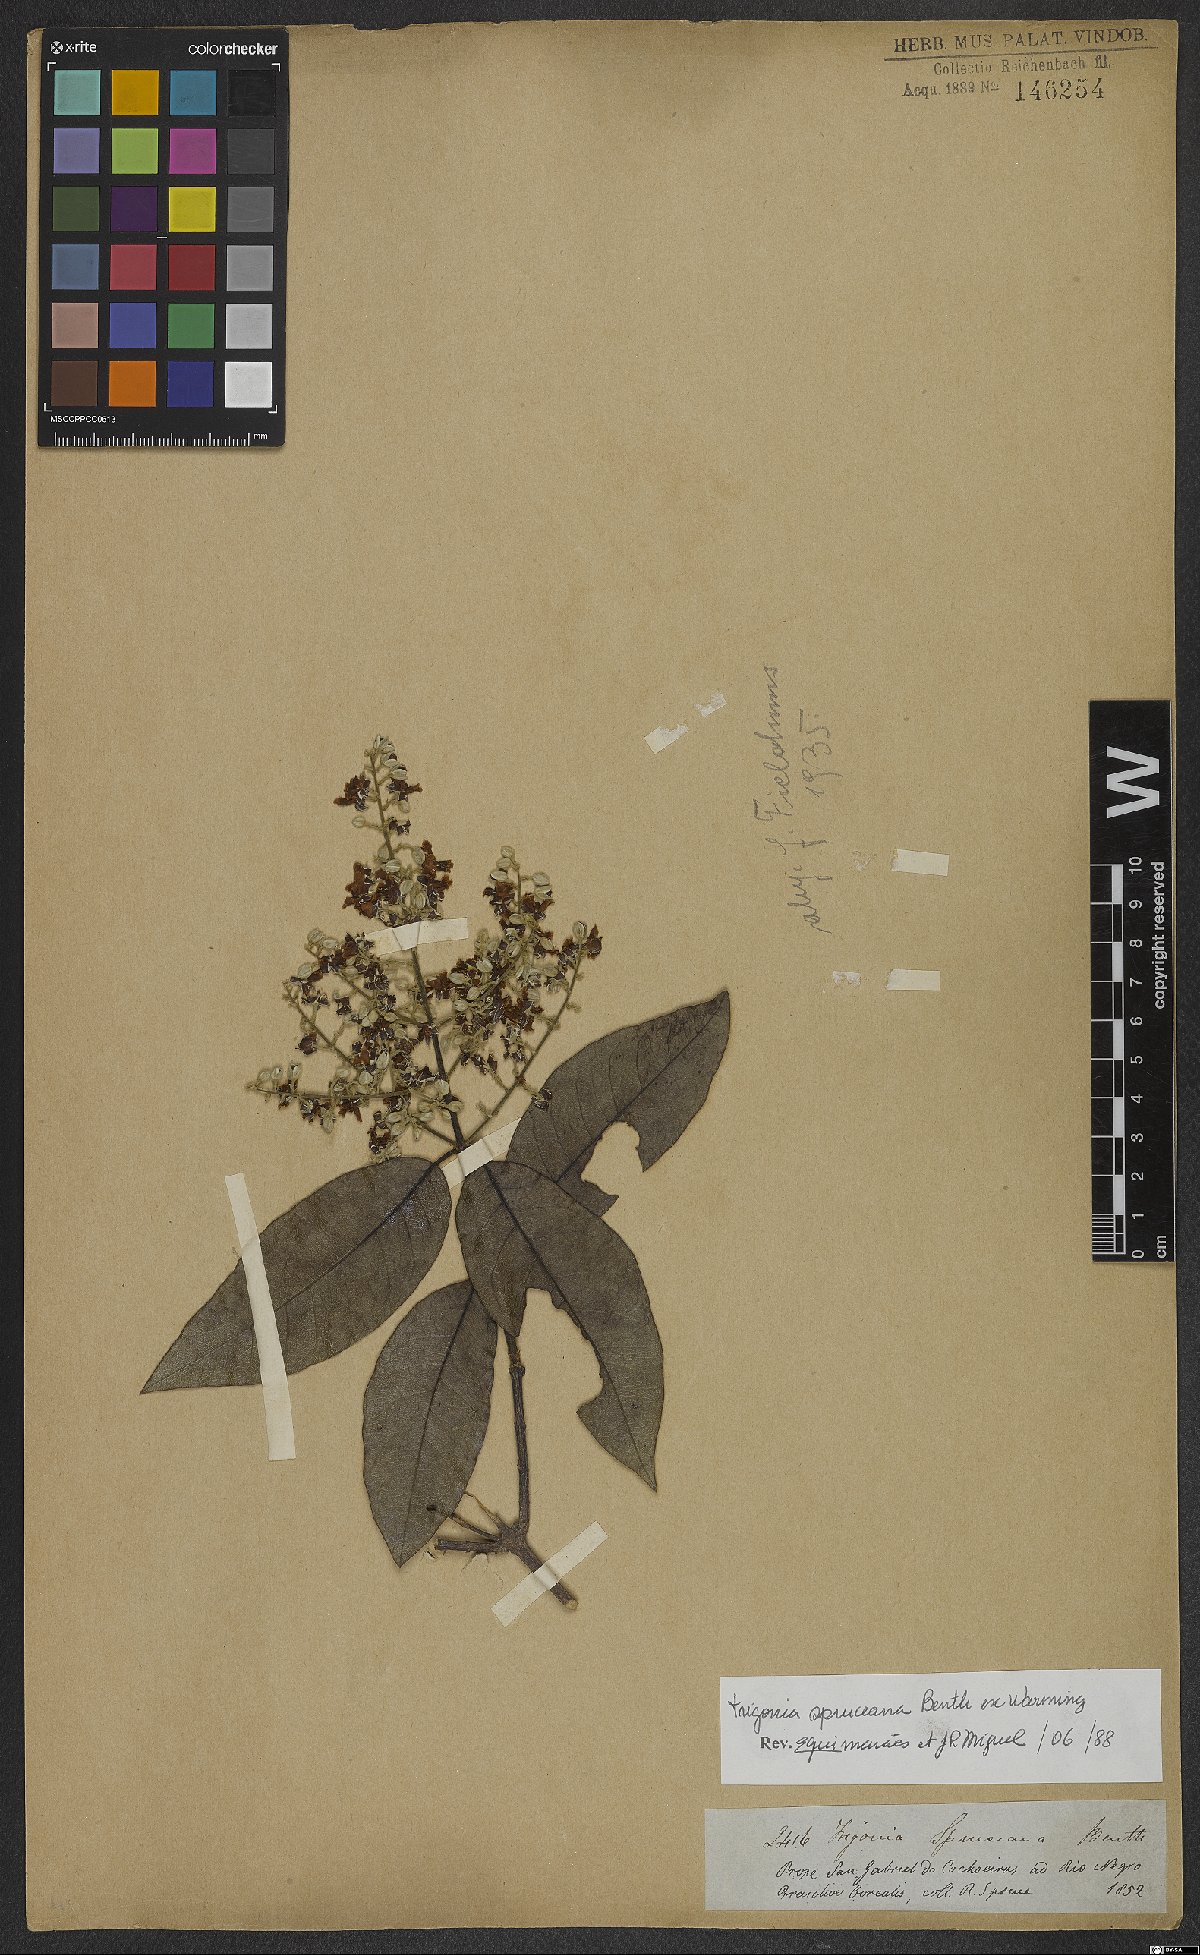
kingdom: Plantae
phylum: Tracheophyta
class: Magnoliopsida
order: Malpighiales
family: Trigoniaceae
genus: Trigonia
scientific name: Trigonia spruceana
